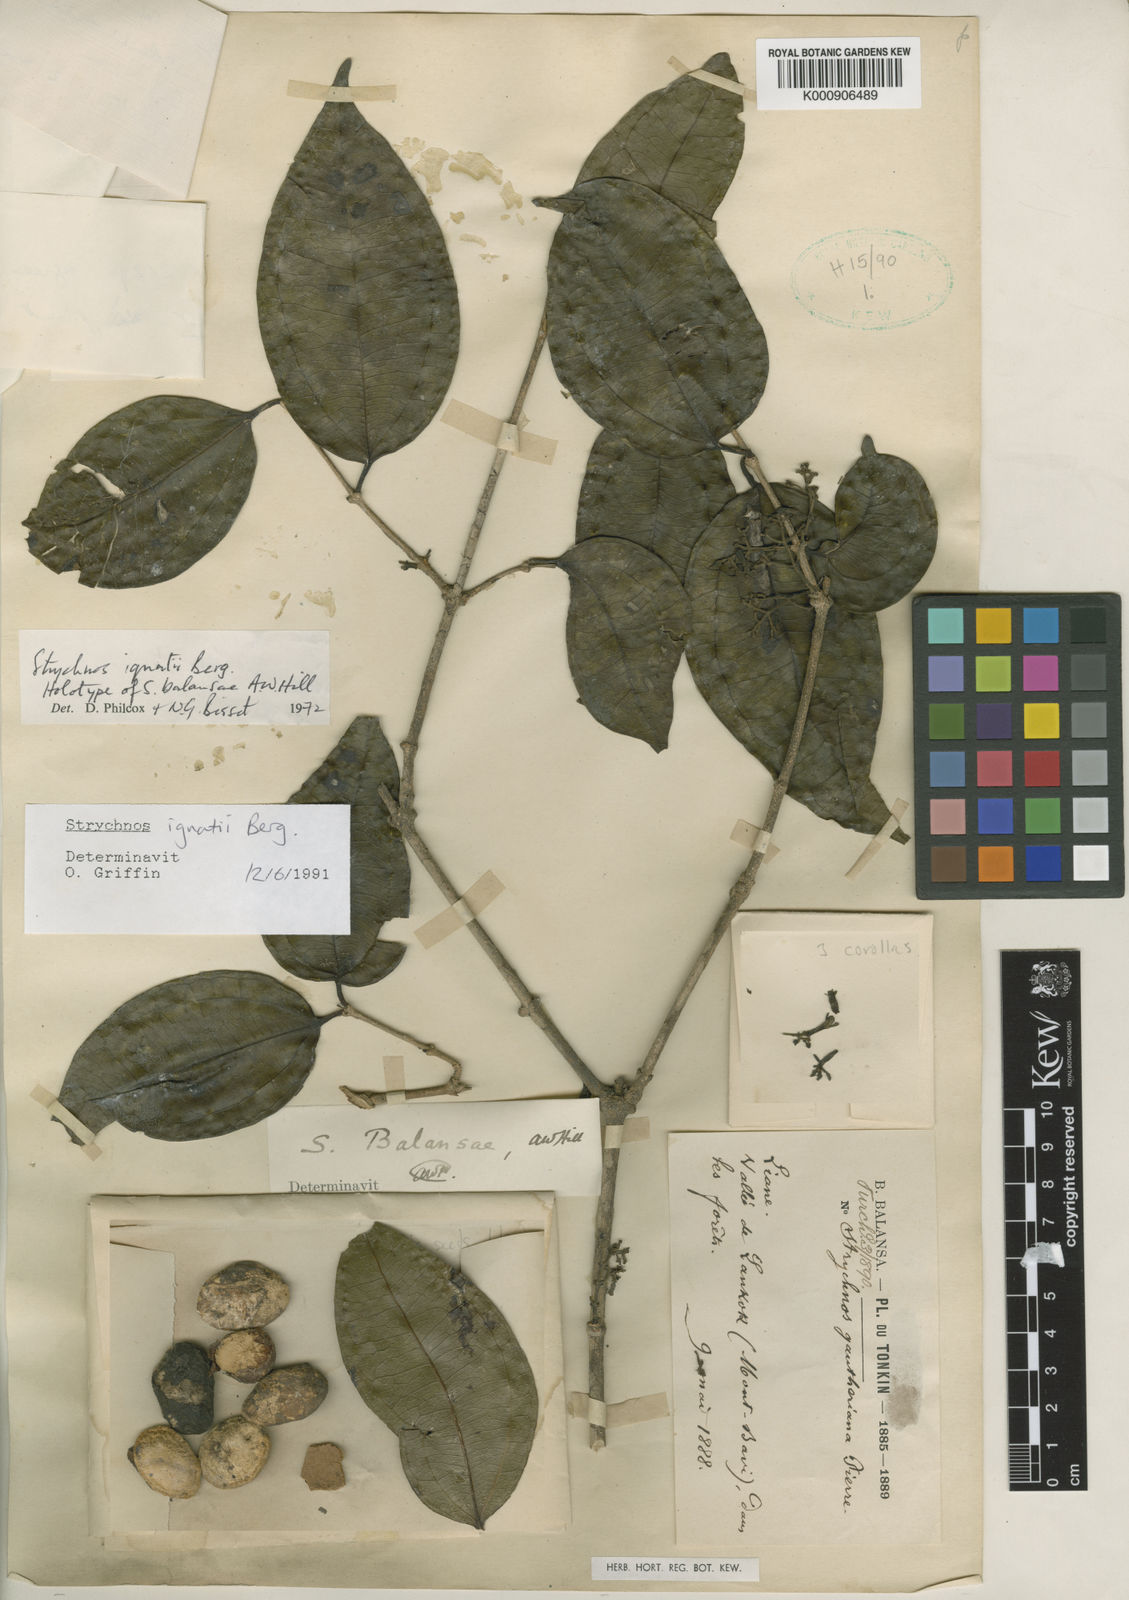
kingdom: Plantae
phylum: Tracheophyta
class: Magnoliopsida
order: Gentianales
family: Loganiaceae
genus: Strychnos
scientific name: Strychnos ignatii
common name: Ignatius-bean
